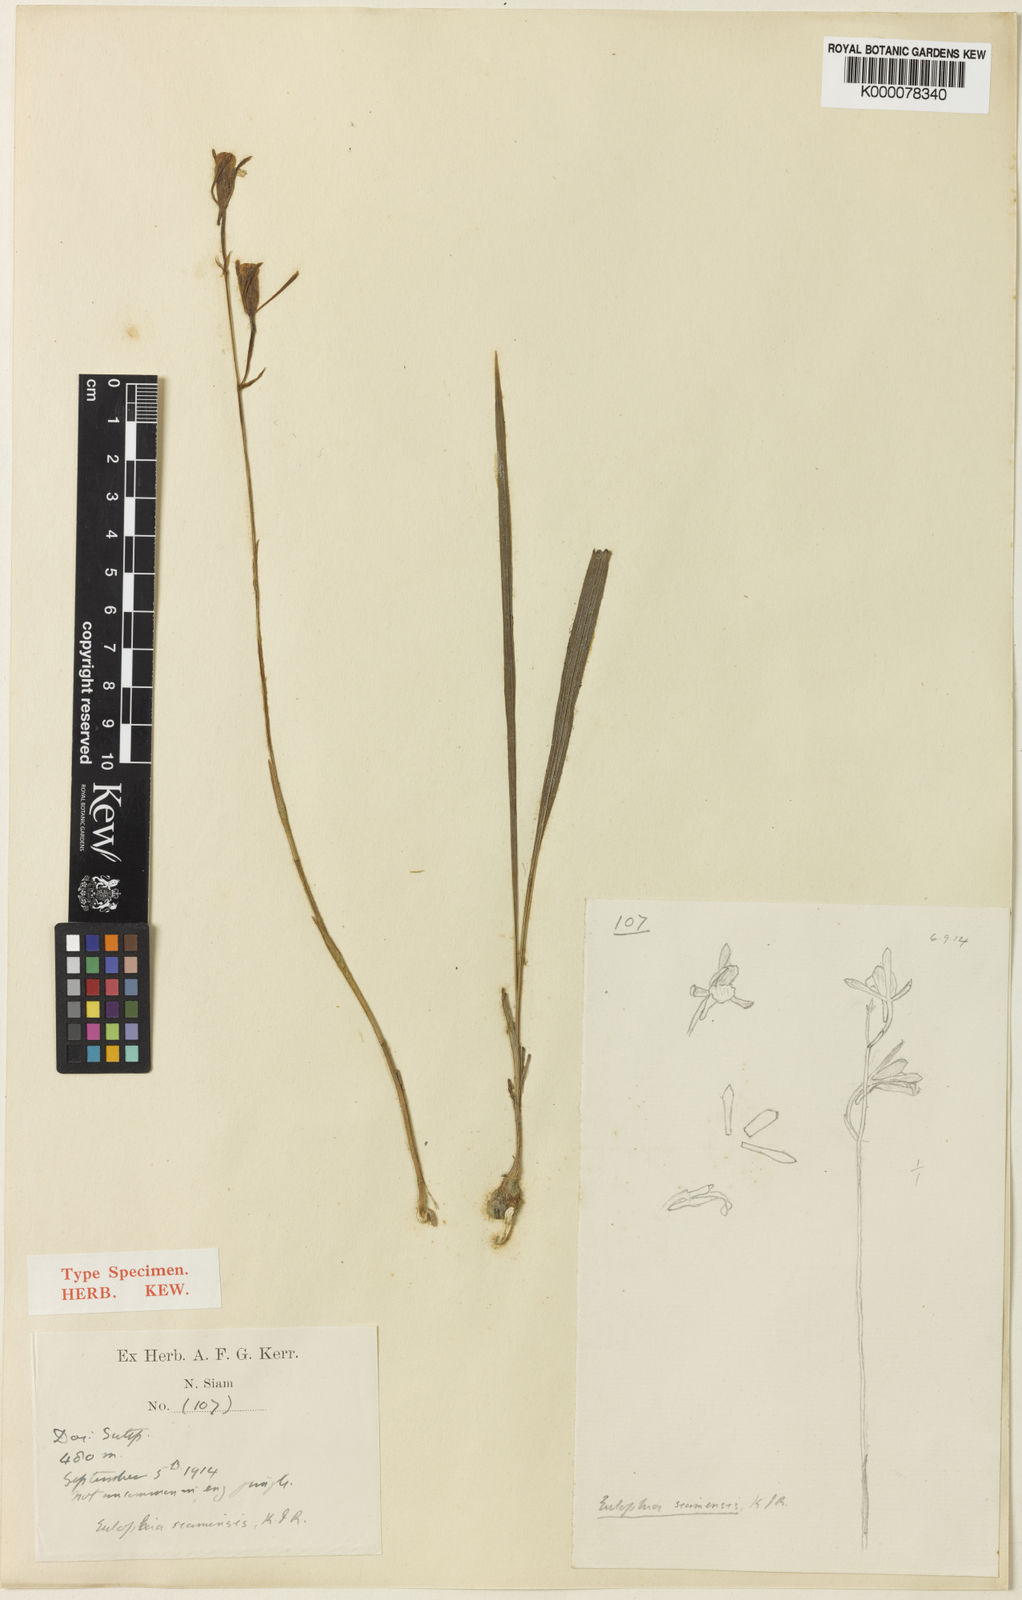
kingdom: Plantae
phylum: Tracheophyta
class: Liliopsida
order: Asparagales
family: Orchidaceae
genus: Eulophia
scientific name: Eulophia siamensis
